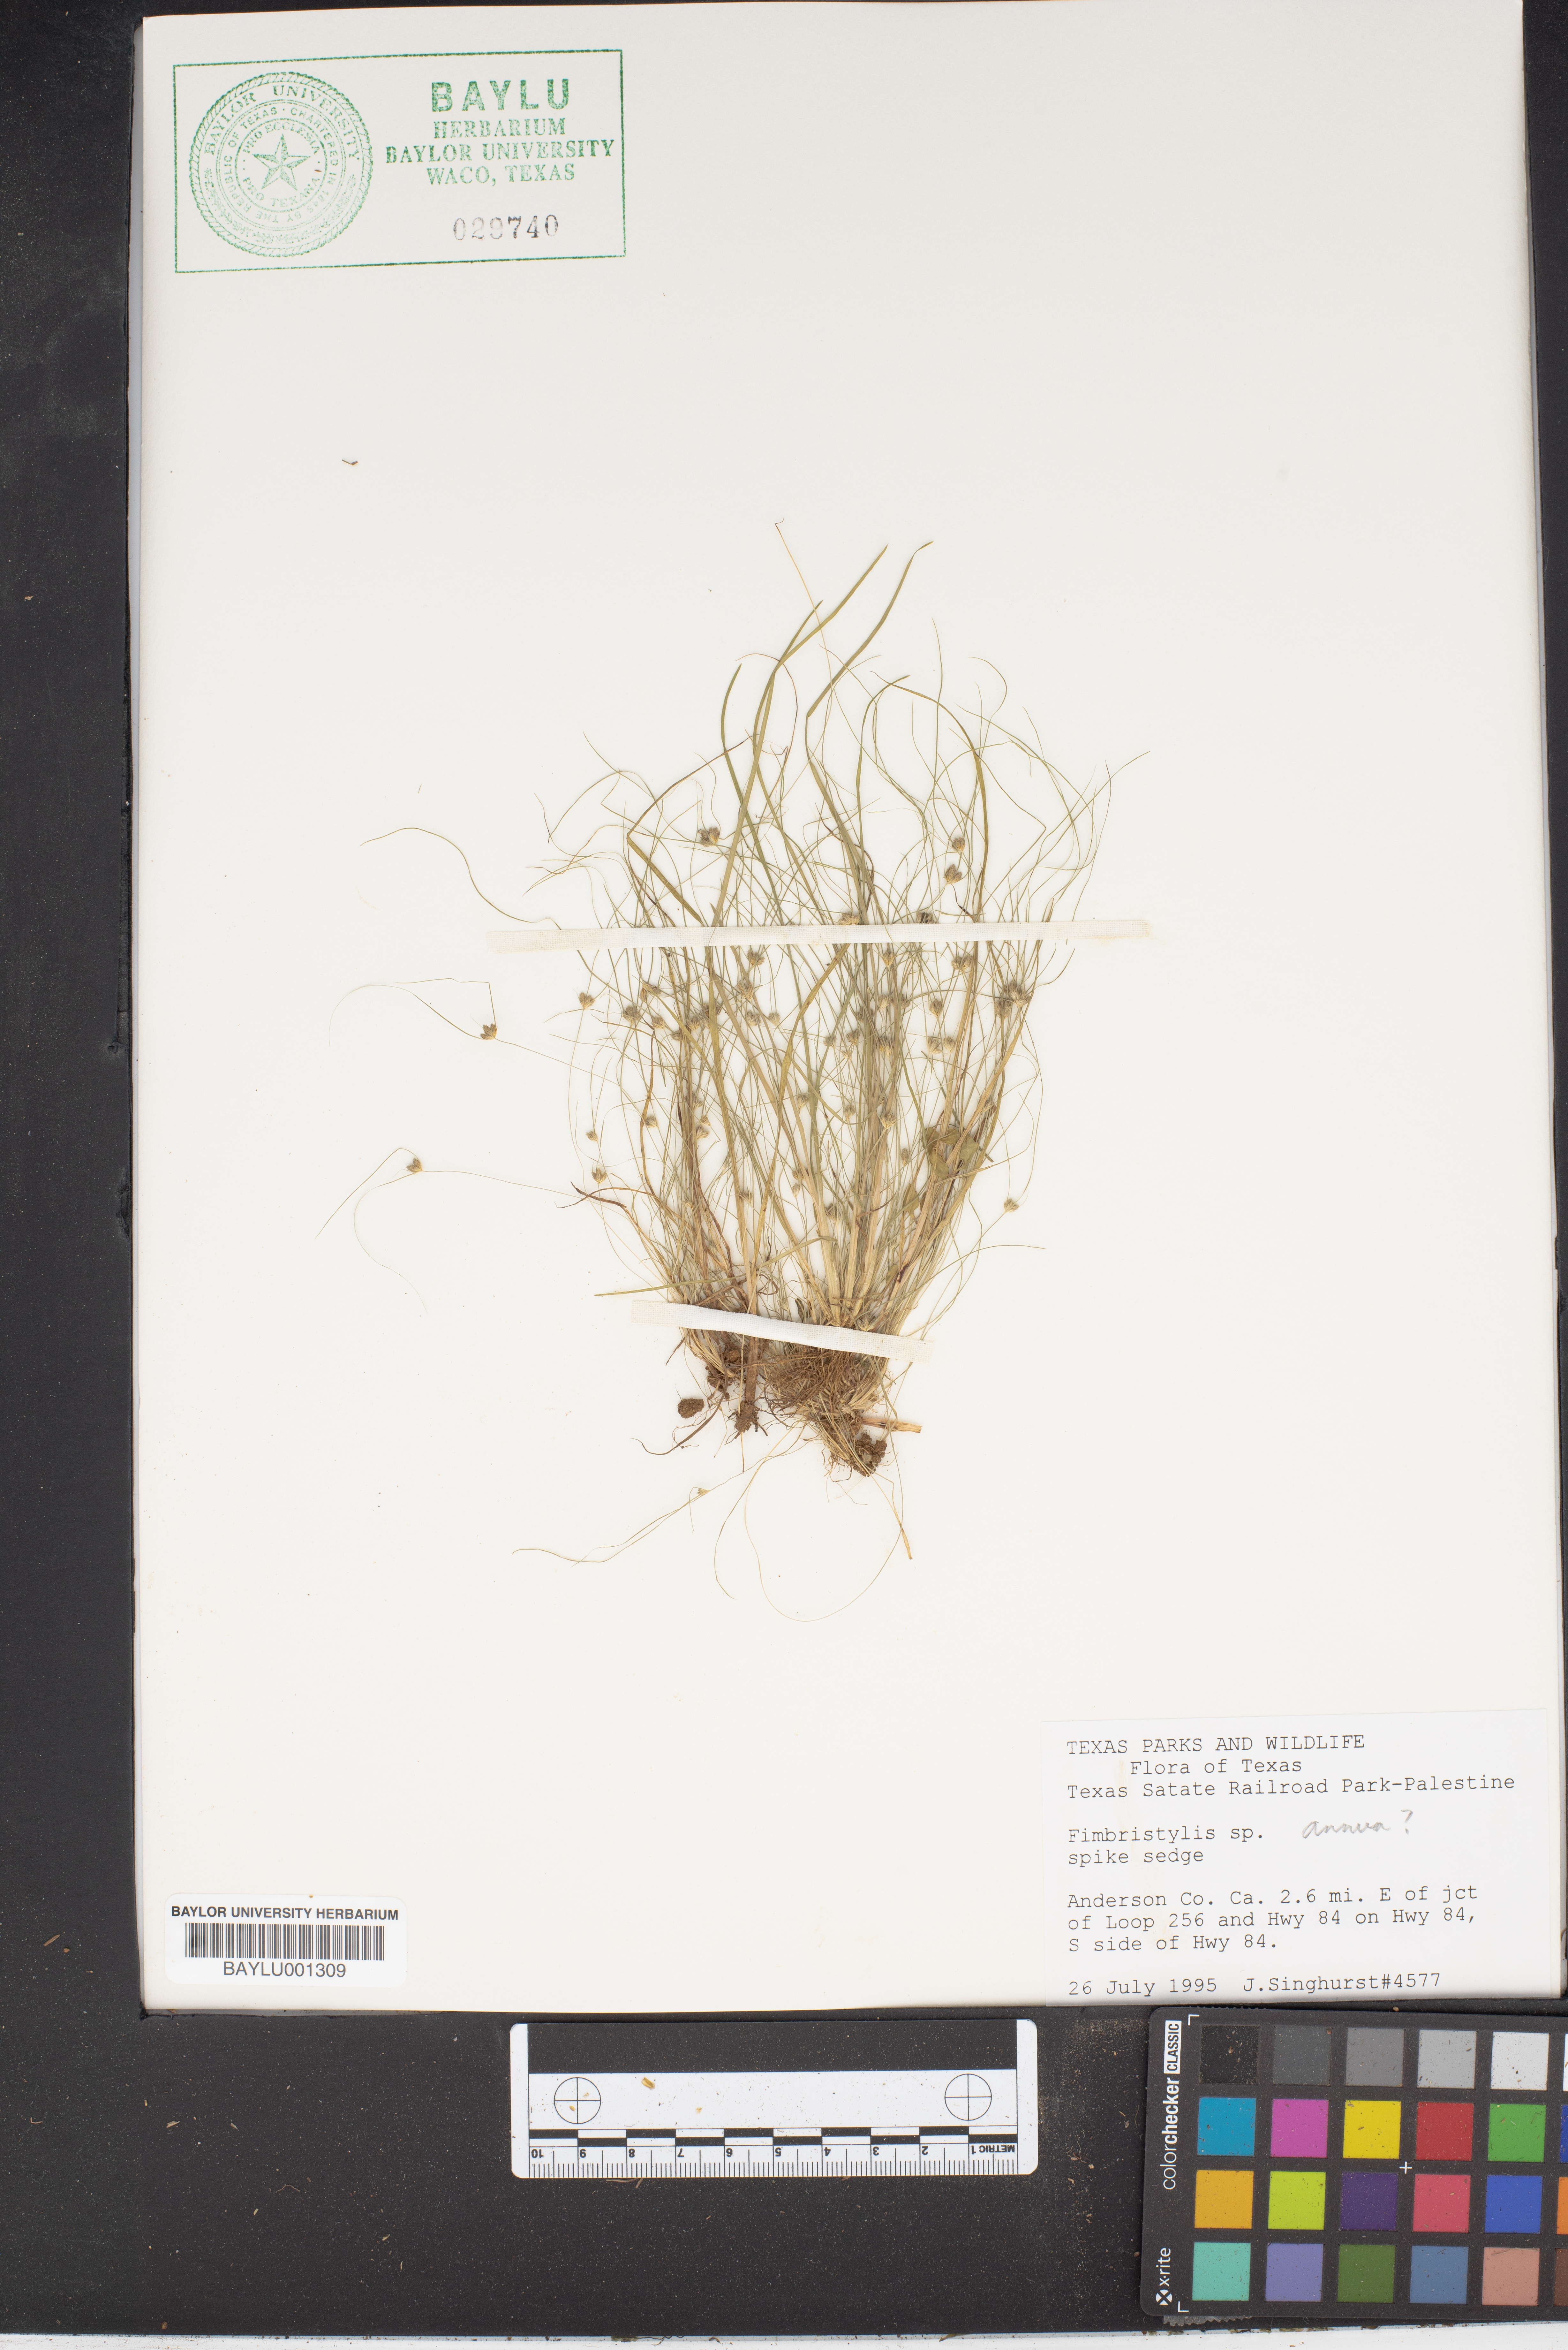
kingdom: Plantae
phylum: Tracheophyta
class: Liliopsida
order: Poales
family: Cyperaceae
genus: Fimbristylis
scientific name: Fimbristylis
